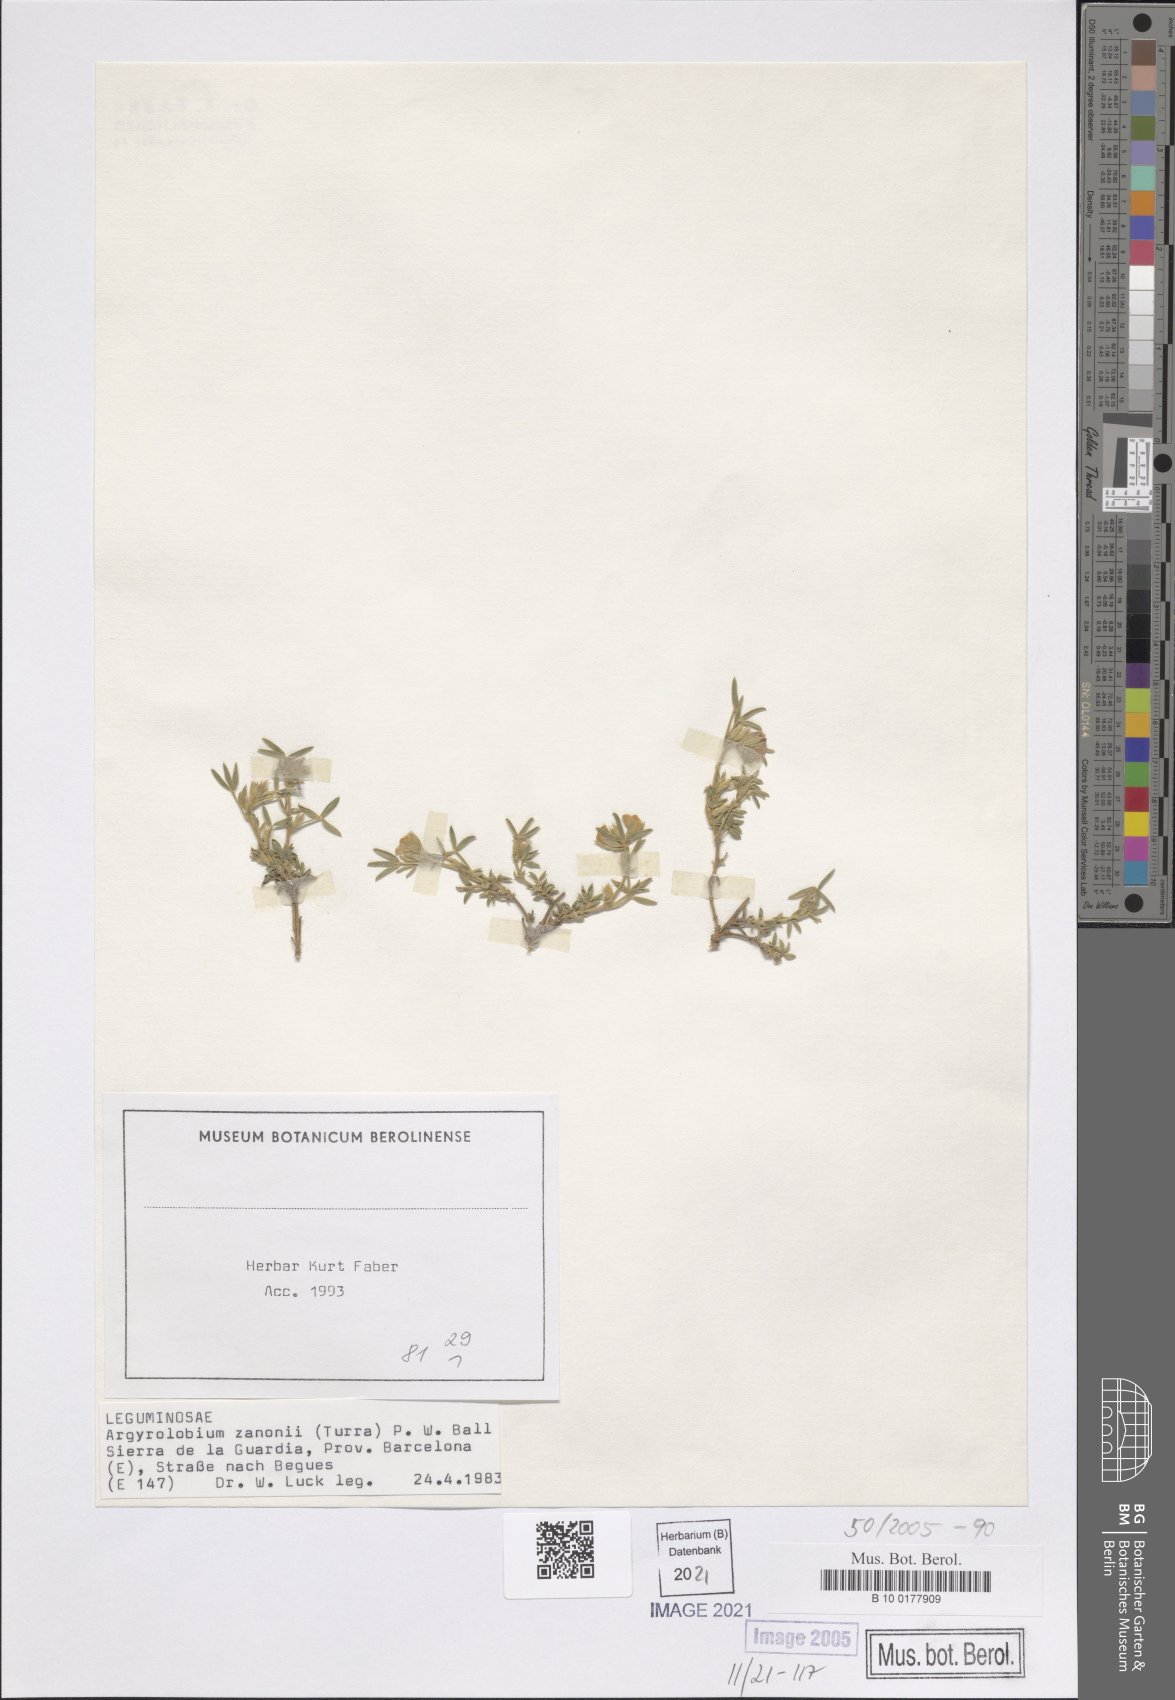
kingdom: Plantae
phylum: Tracheophyta
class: Magnoliopsida
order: Fabales
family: Fabaceae
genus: Argyrolobium
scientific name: Argyrolobium zanonii
